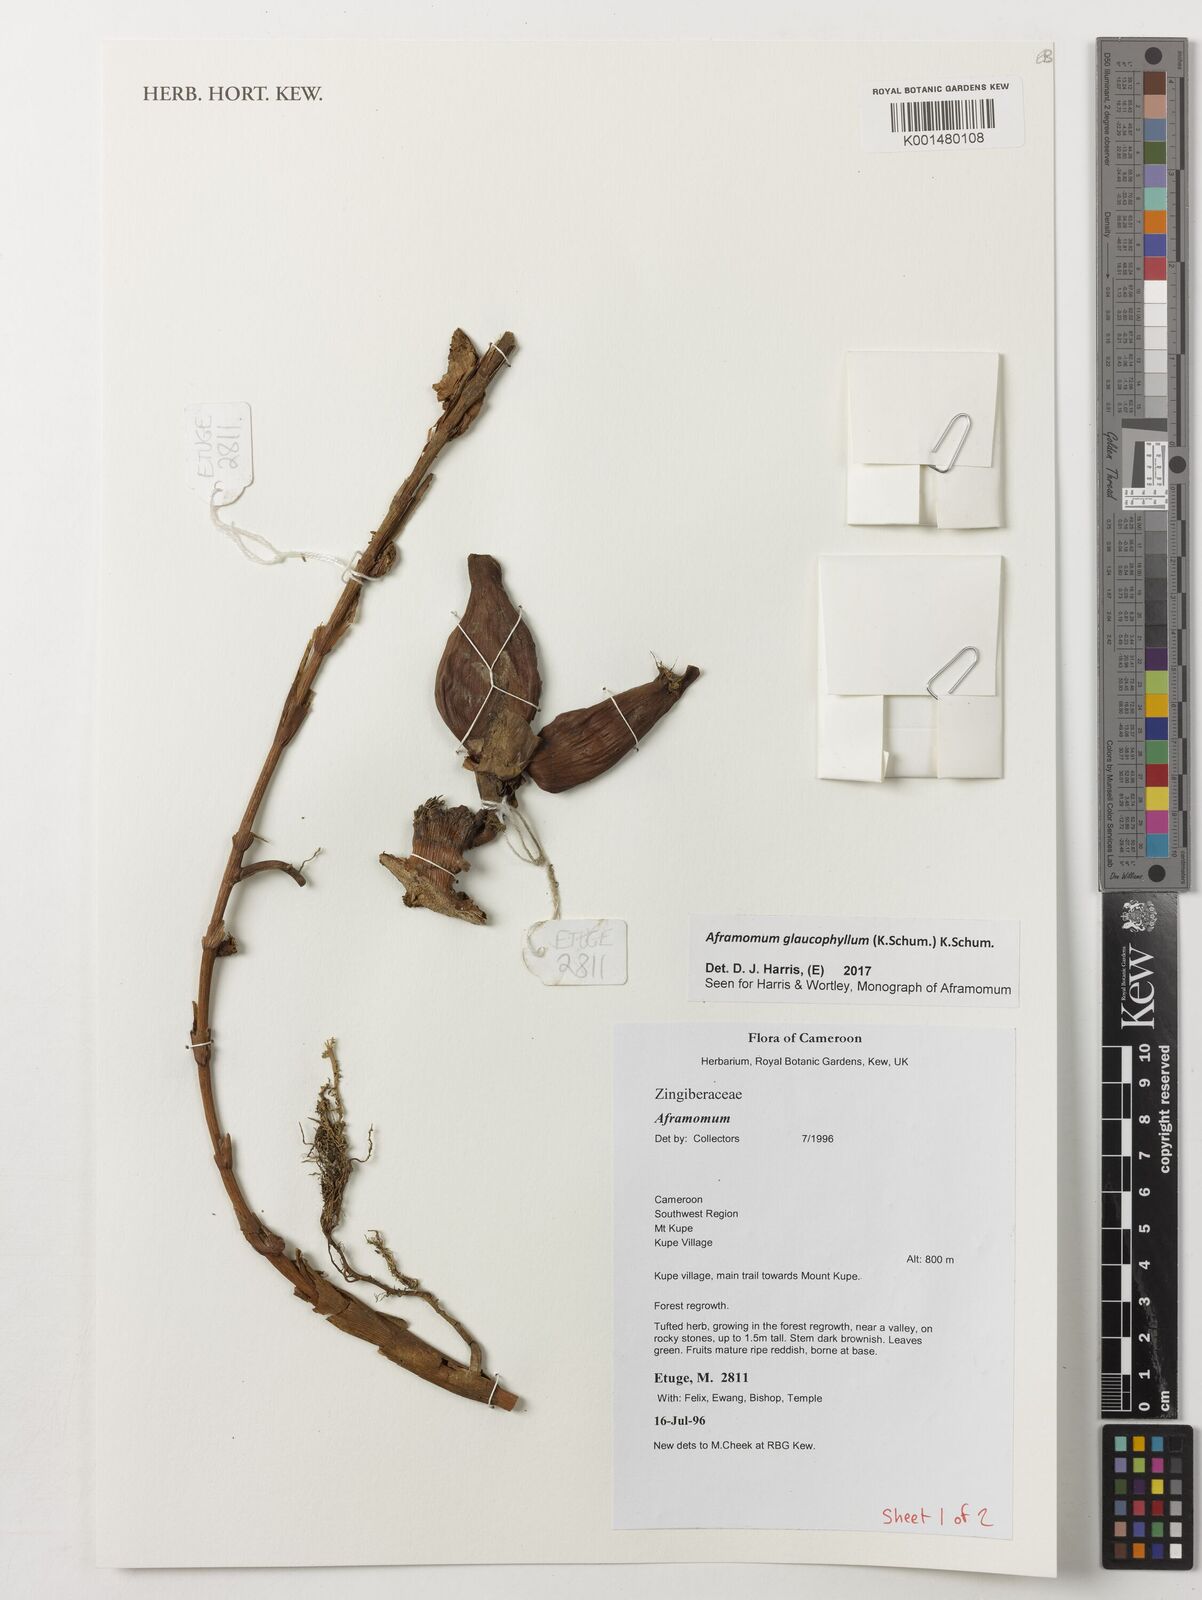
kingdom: Plantae
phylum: Tracheophyta
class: Liliopsida
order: Zingiberales
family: Zingiberaceae
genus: Aframomum
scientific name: Aframomum glaucophyllum
